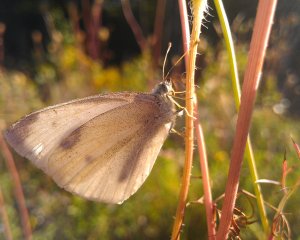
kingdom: Animalia
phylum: Arthropoda
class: Insecta
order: Lepidoptera
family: Pieridae
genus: Pieris
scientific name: Pieris rapae
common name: Cabbage White
